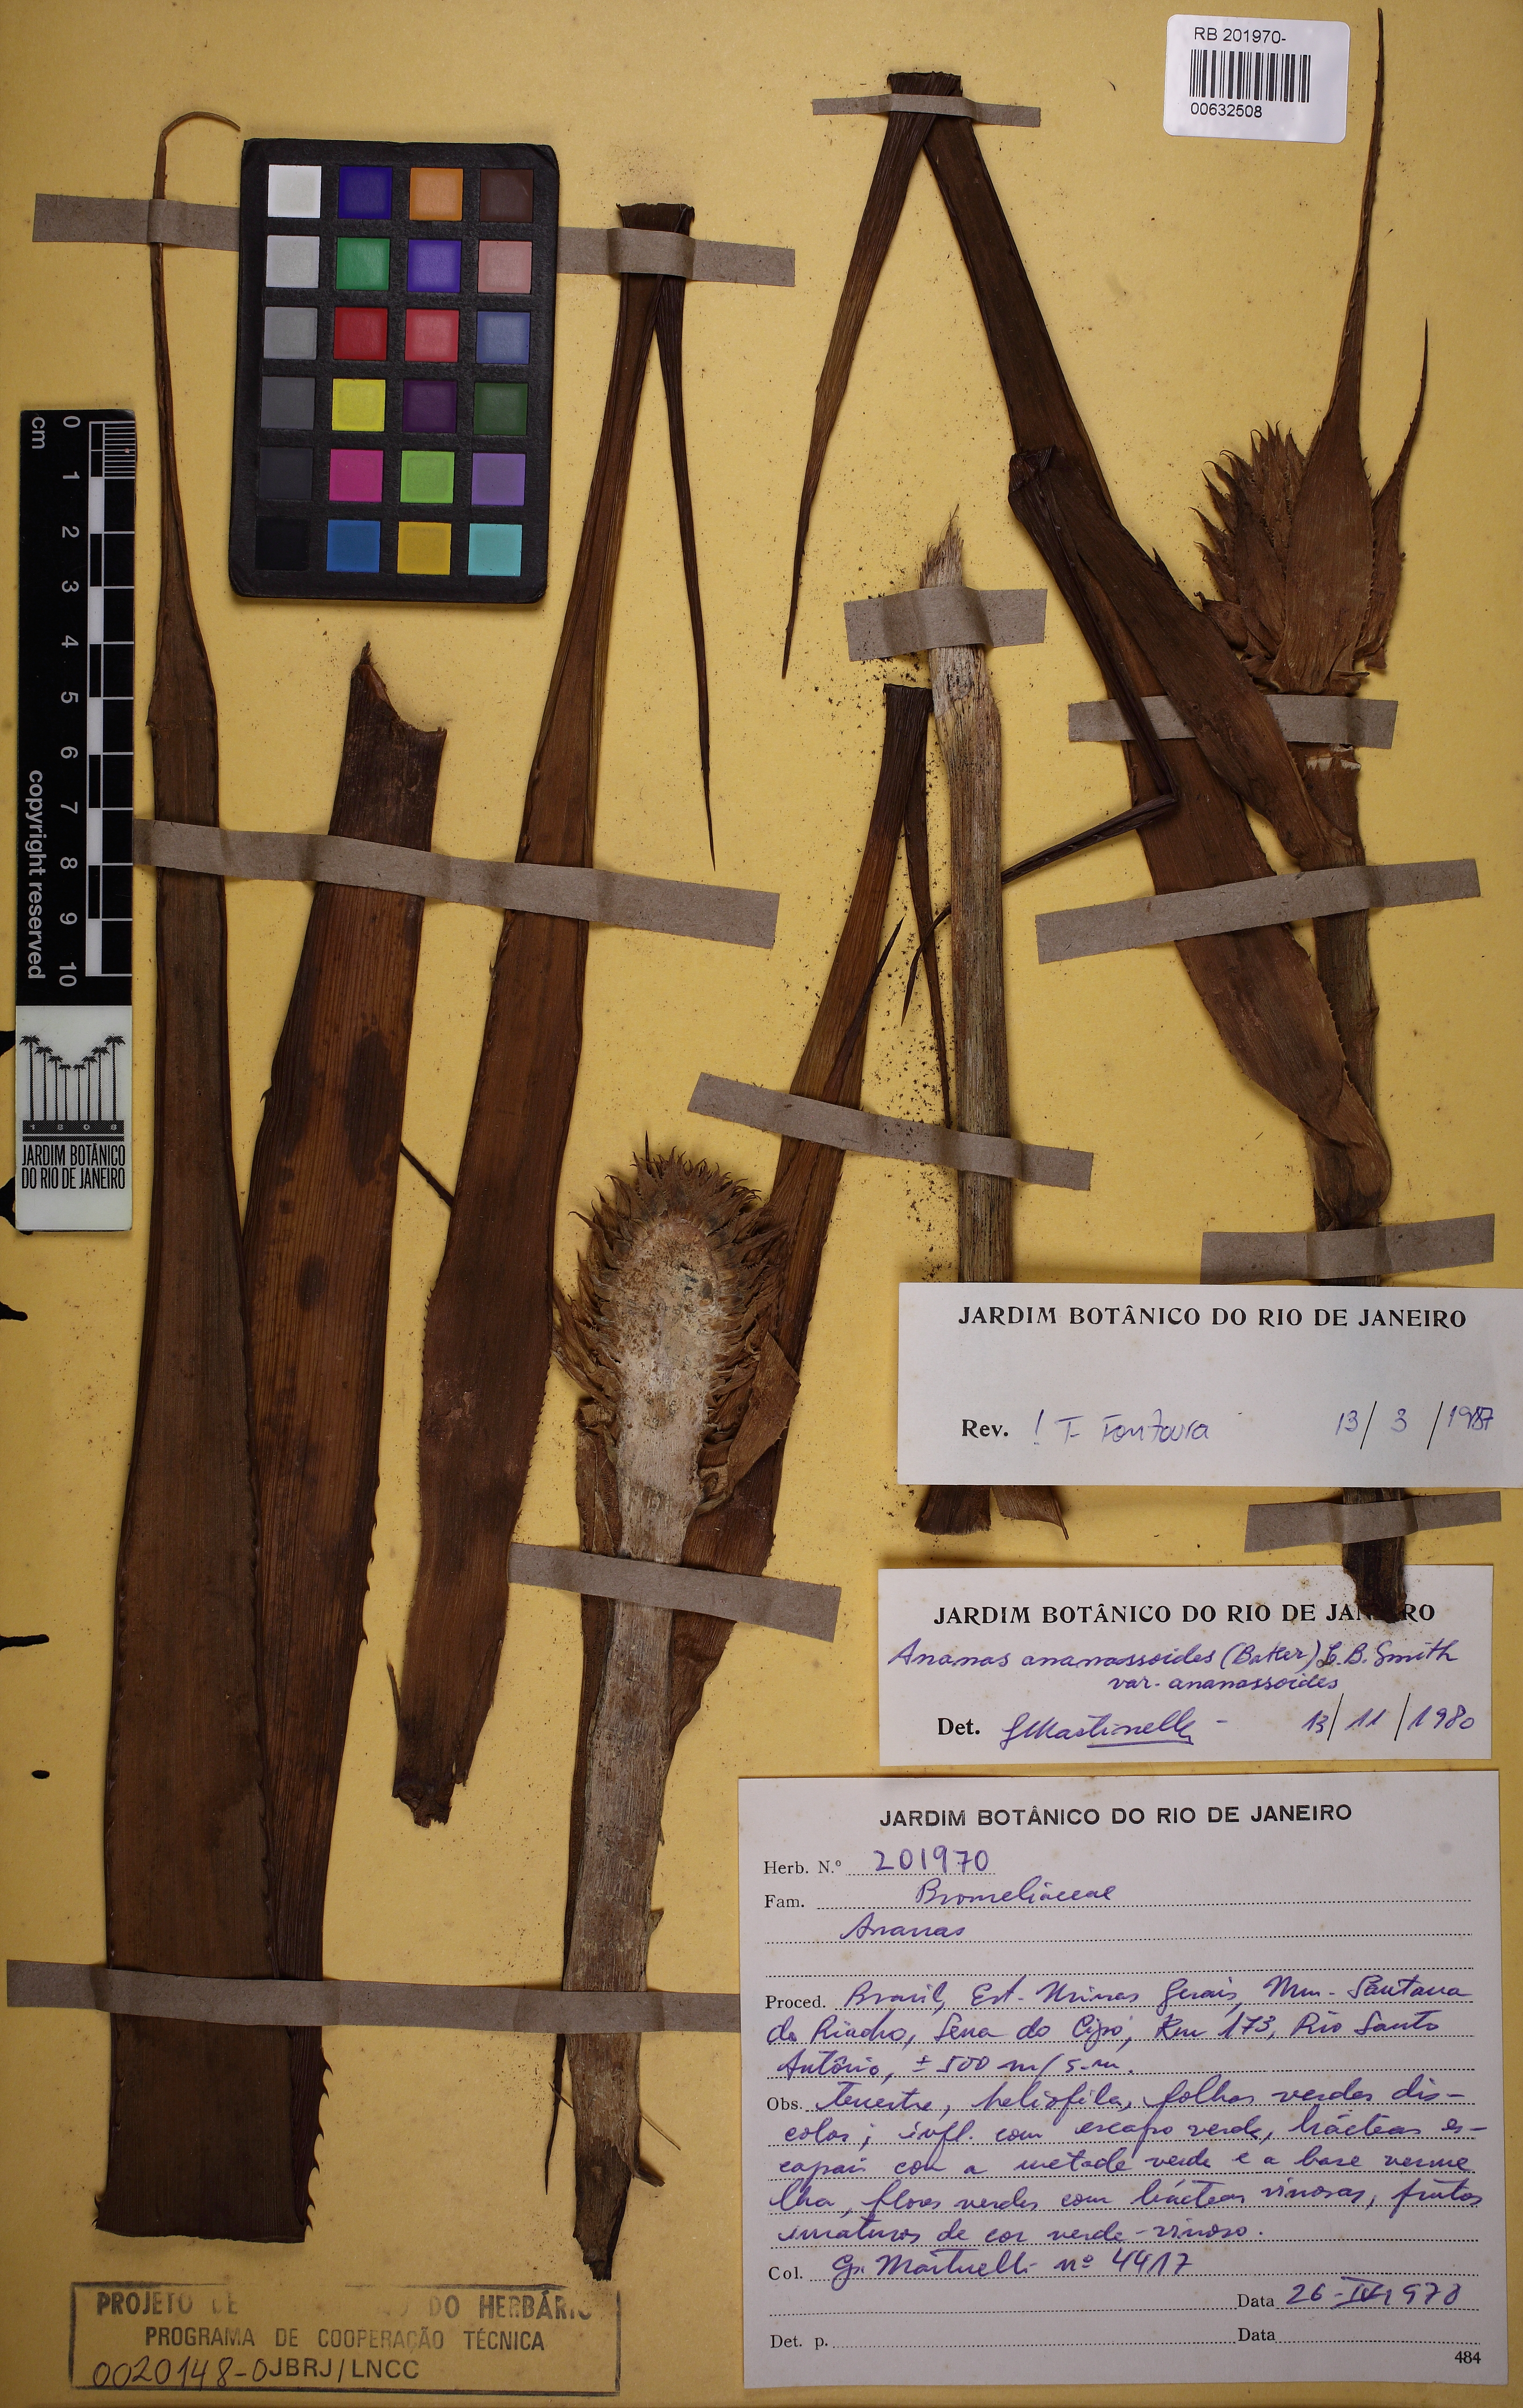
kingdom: Plantae
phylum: Tracheophyta
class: Liliopsida
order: Poales
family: Bromeliaceae
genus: Ananas
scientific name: Ananas comosus
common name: Pineapple
